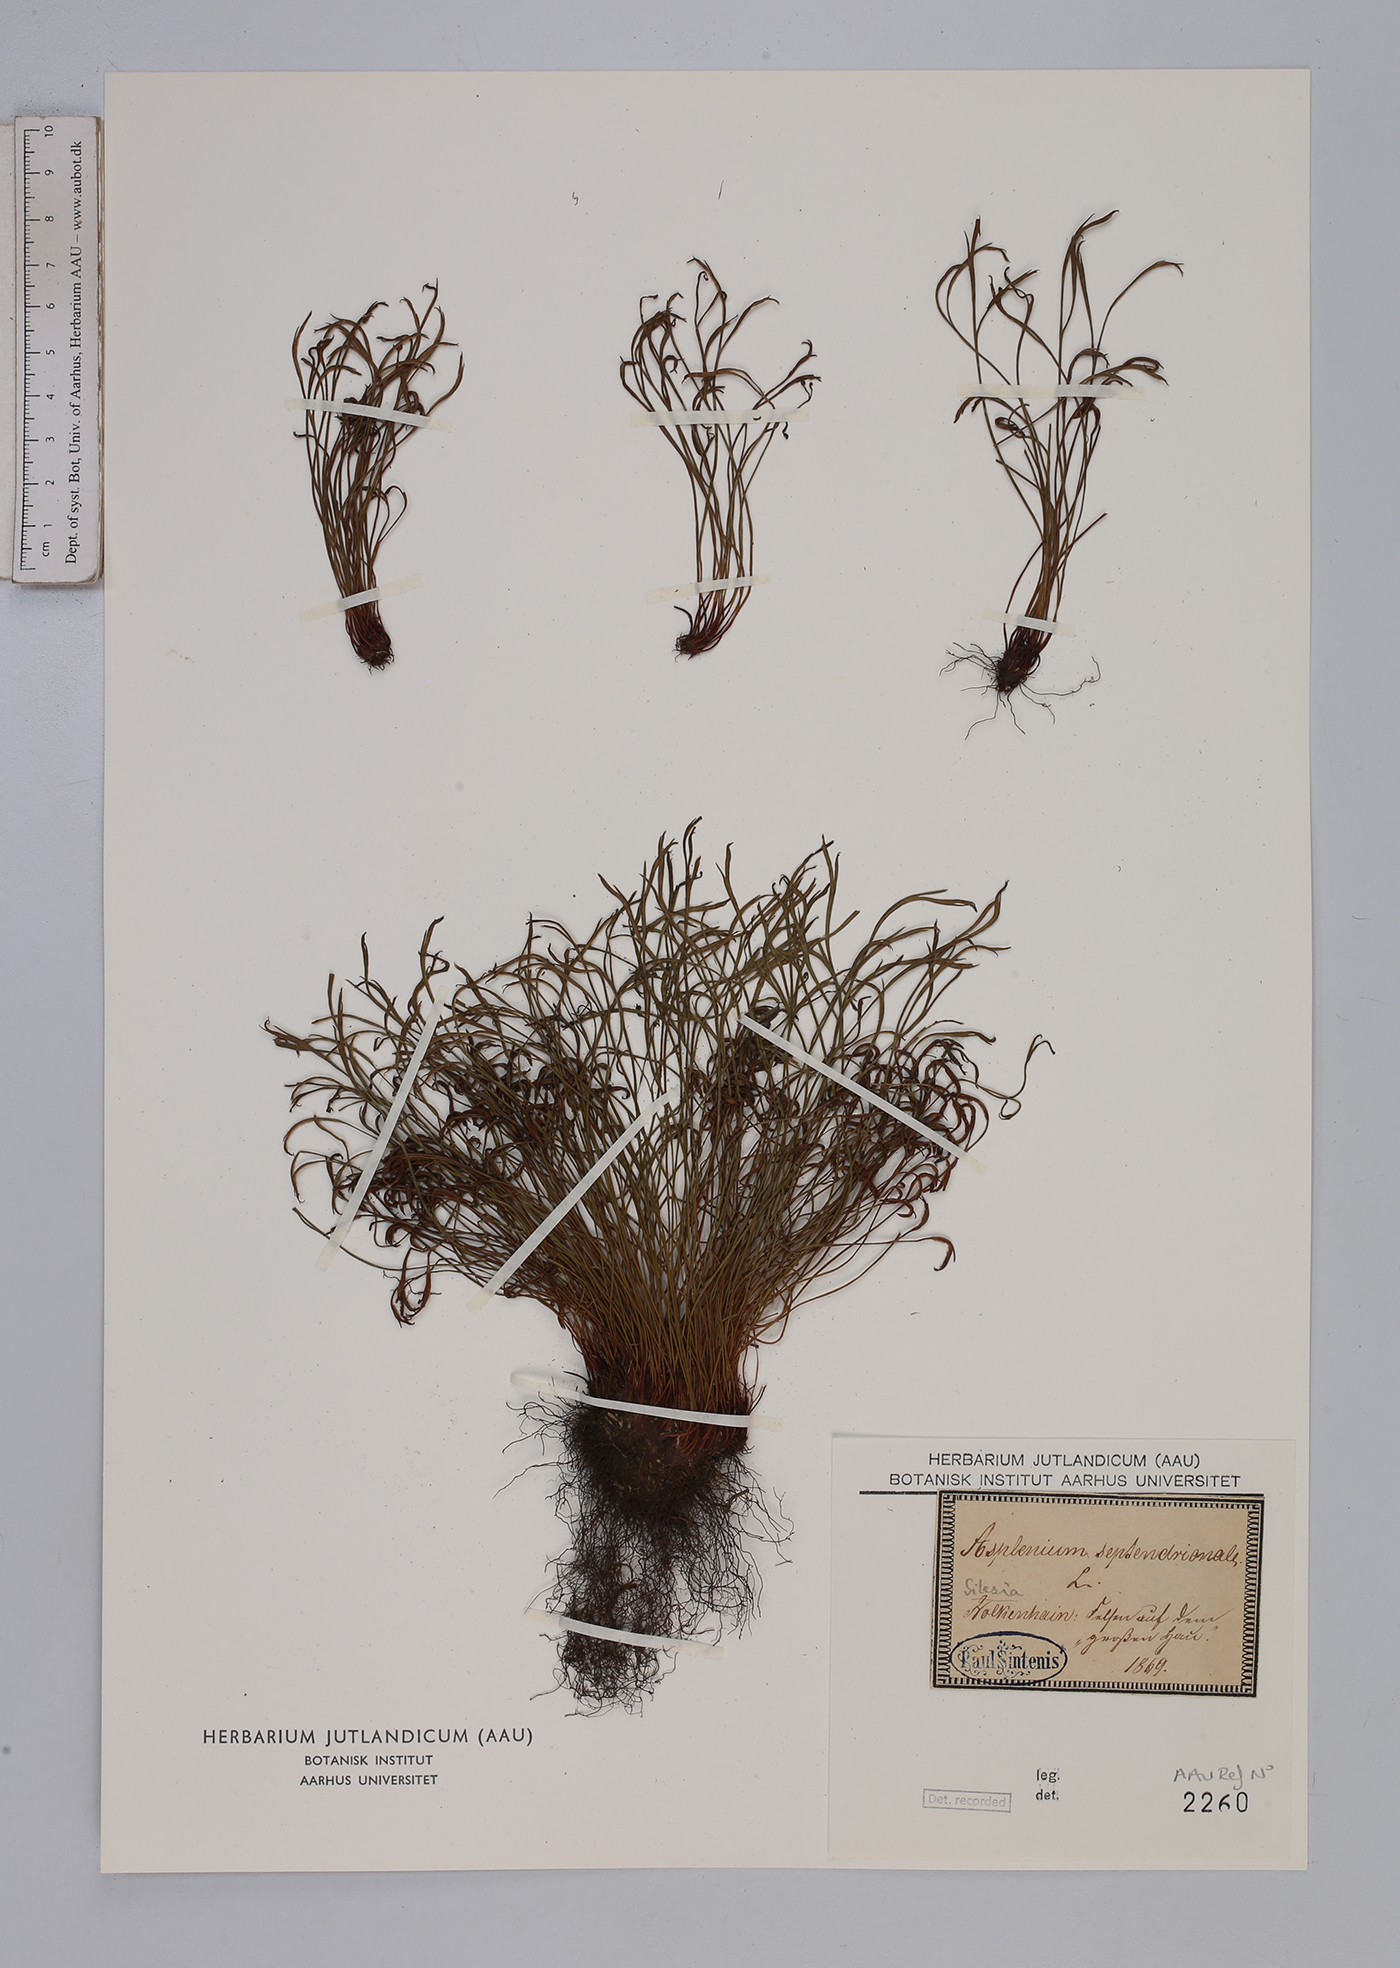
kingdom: Plantae
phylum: Tracheophyta
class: Polypodiopsida
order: Polypodiales
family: Aspleniaceae
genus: Asplenium
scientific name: Asplenium septentrionale
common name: Forked spleenwort
